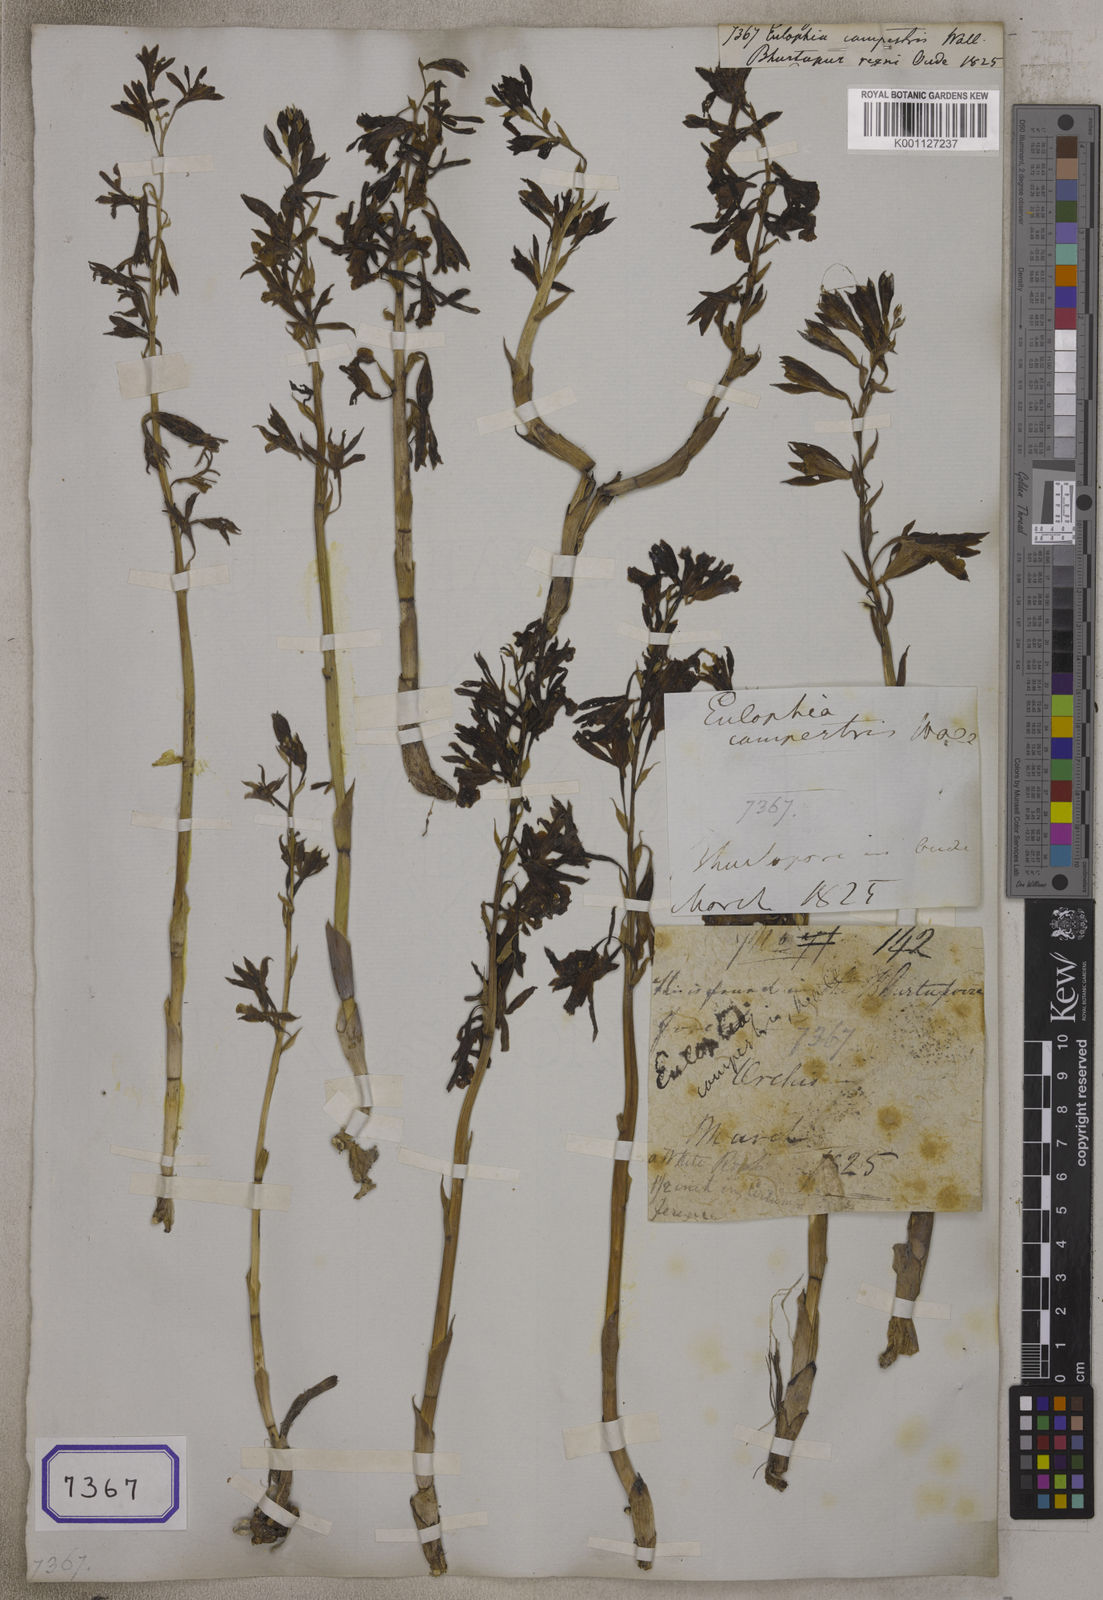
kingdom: Plantae
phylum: Tracheophyta
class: Liliopsida
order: Asparagales
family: Orchidaceae
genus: Eulophia
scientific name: Eulophia
